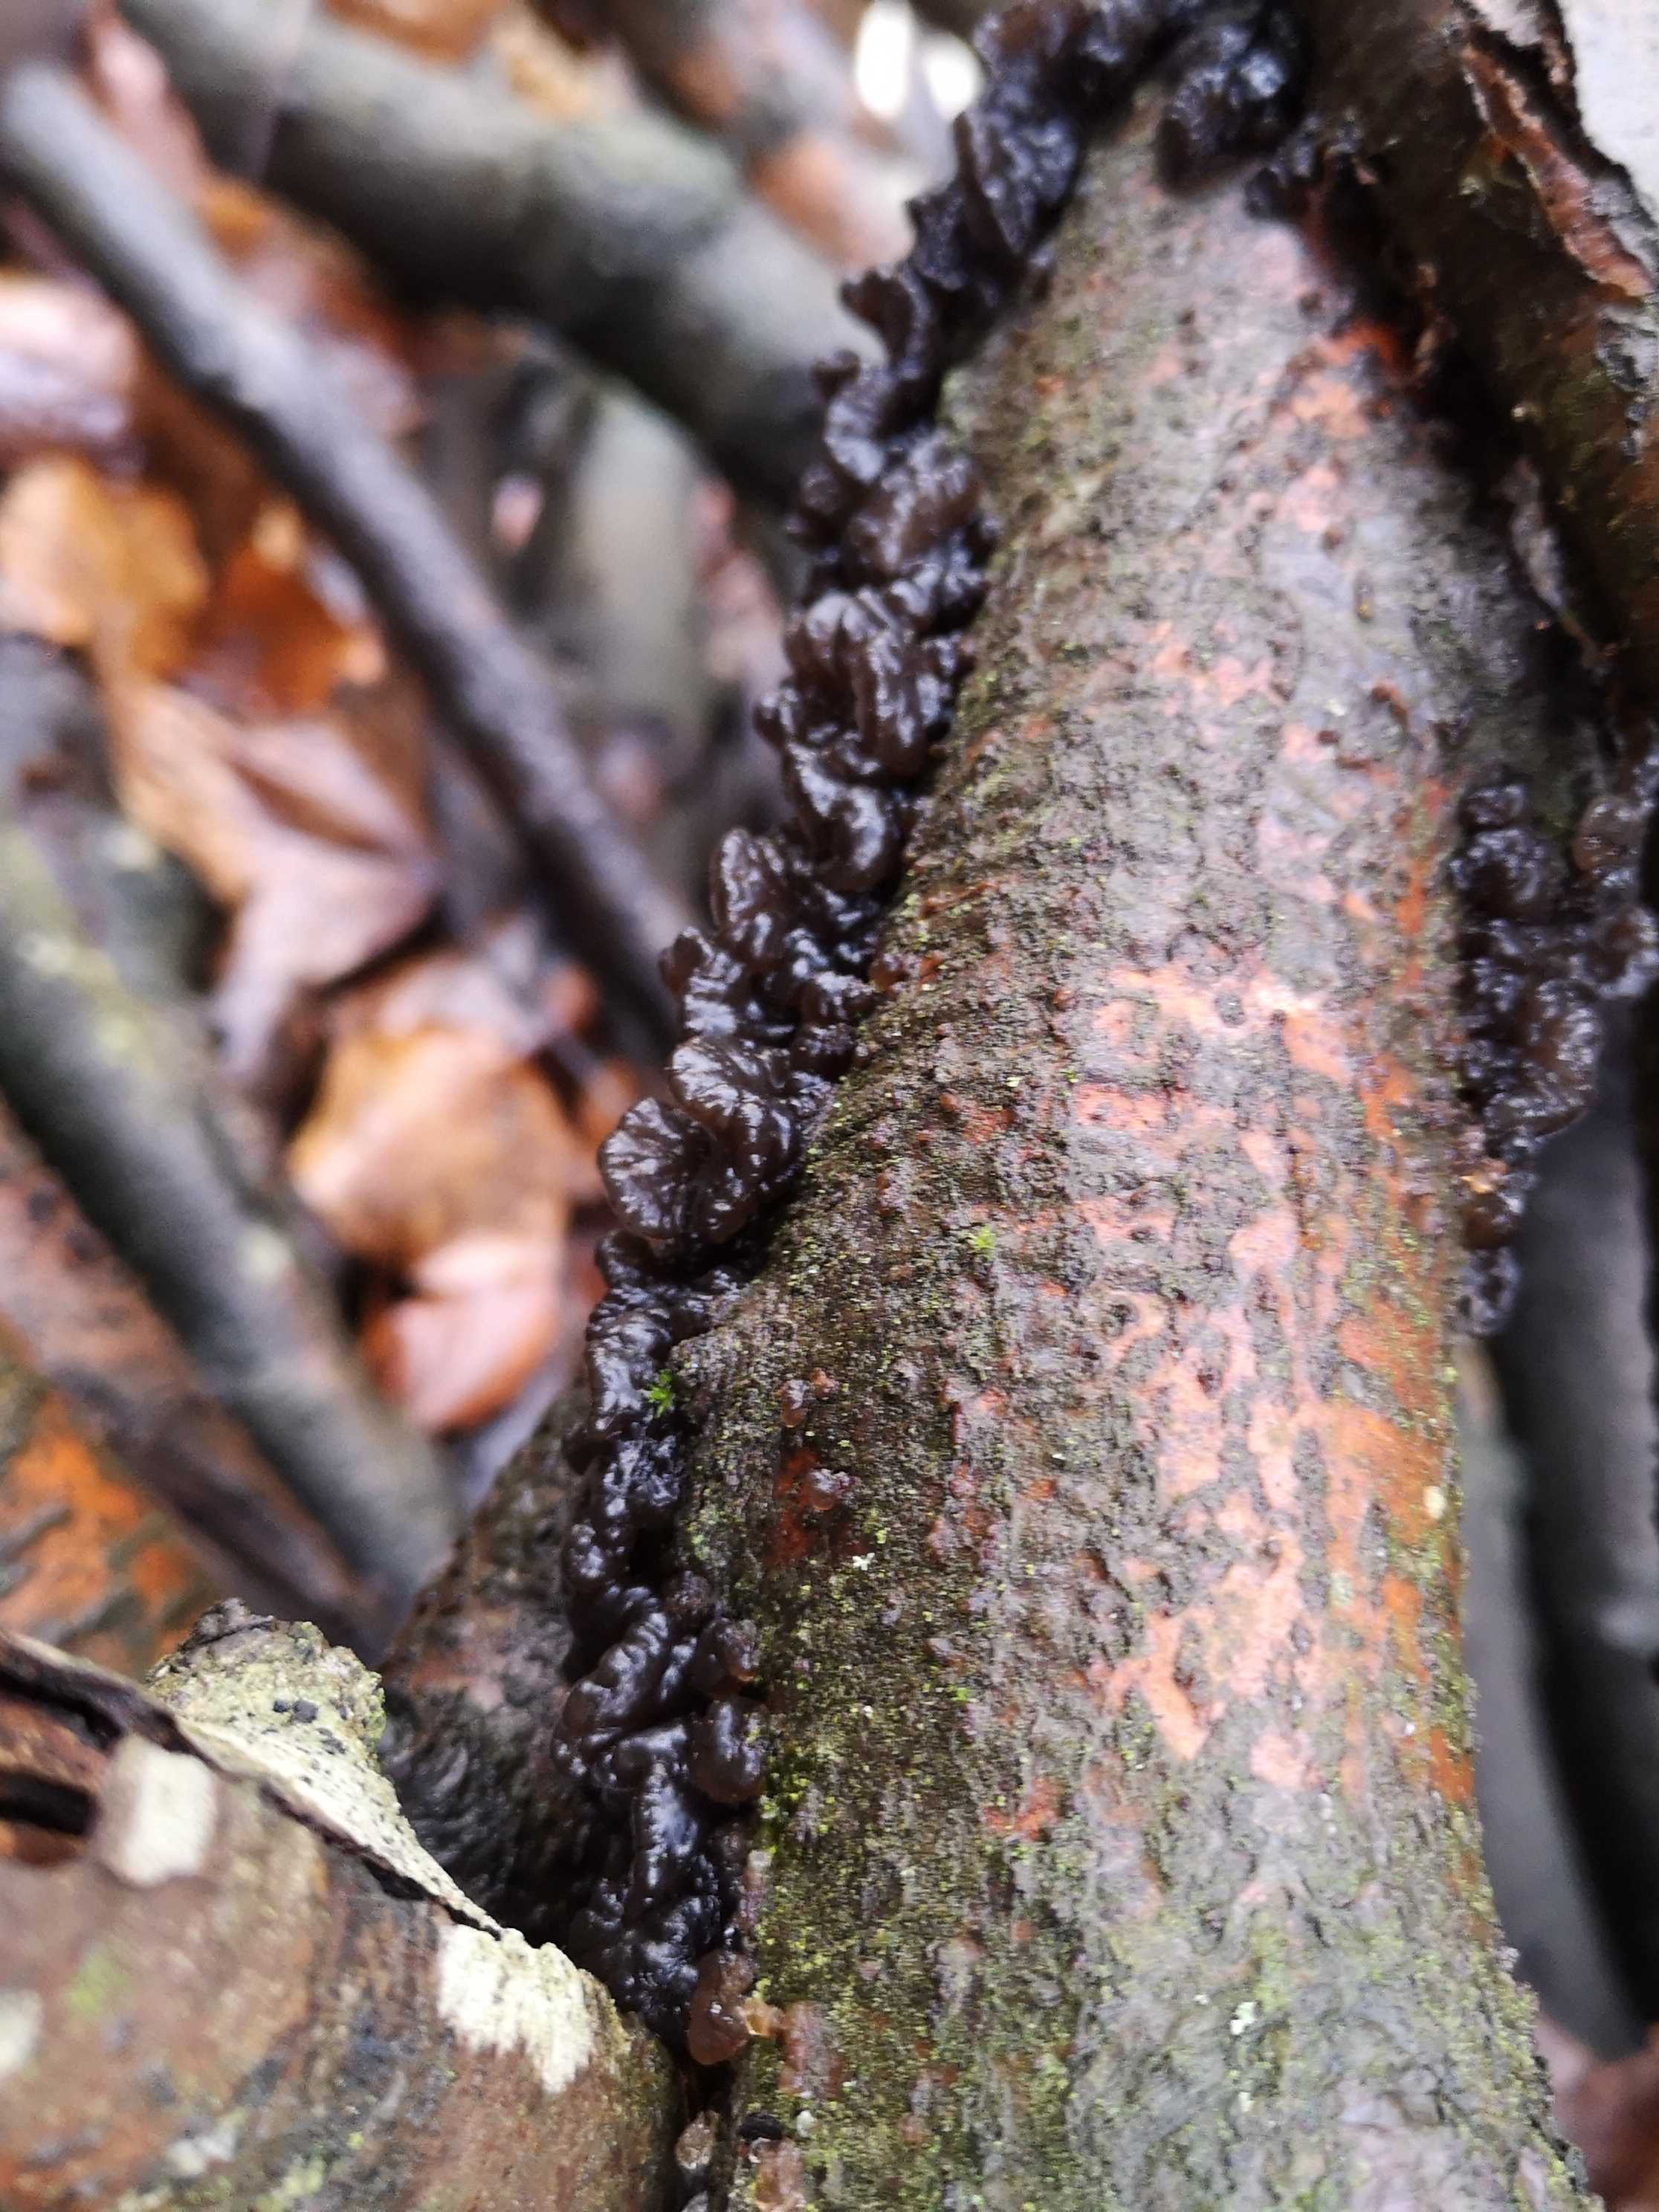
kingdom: Fungi
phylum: Basidiomycota
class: Agaricomycetes
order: Auriculariales
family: Auriculariaceae
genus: Exidia
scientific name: Exidia nigricans
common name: almindelig bævretop
